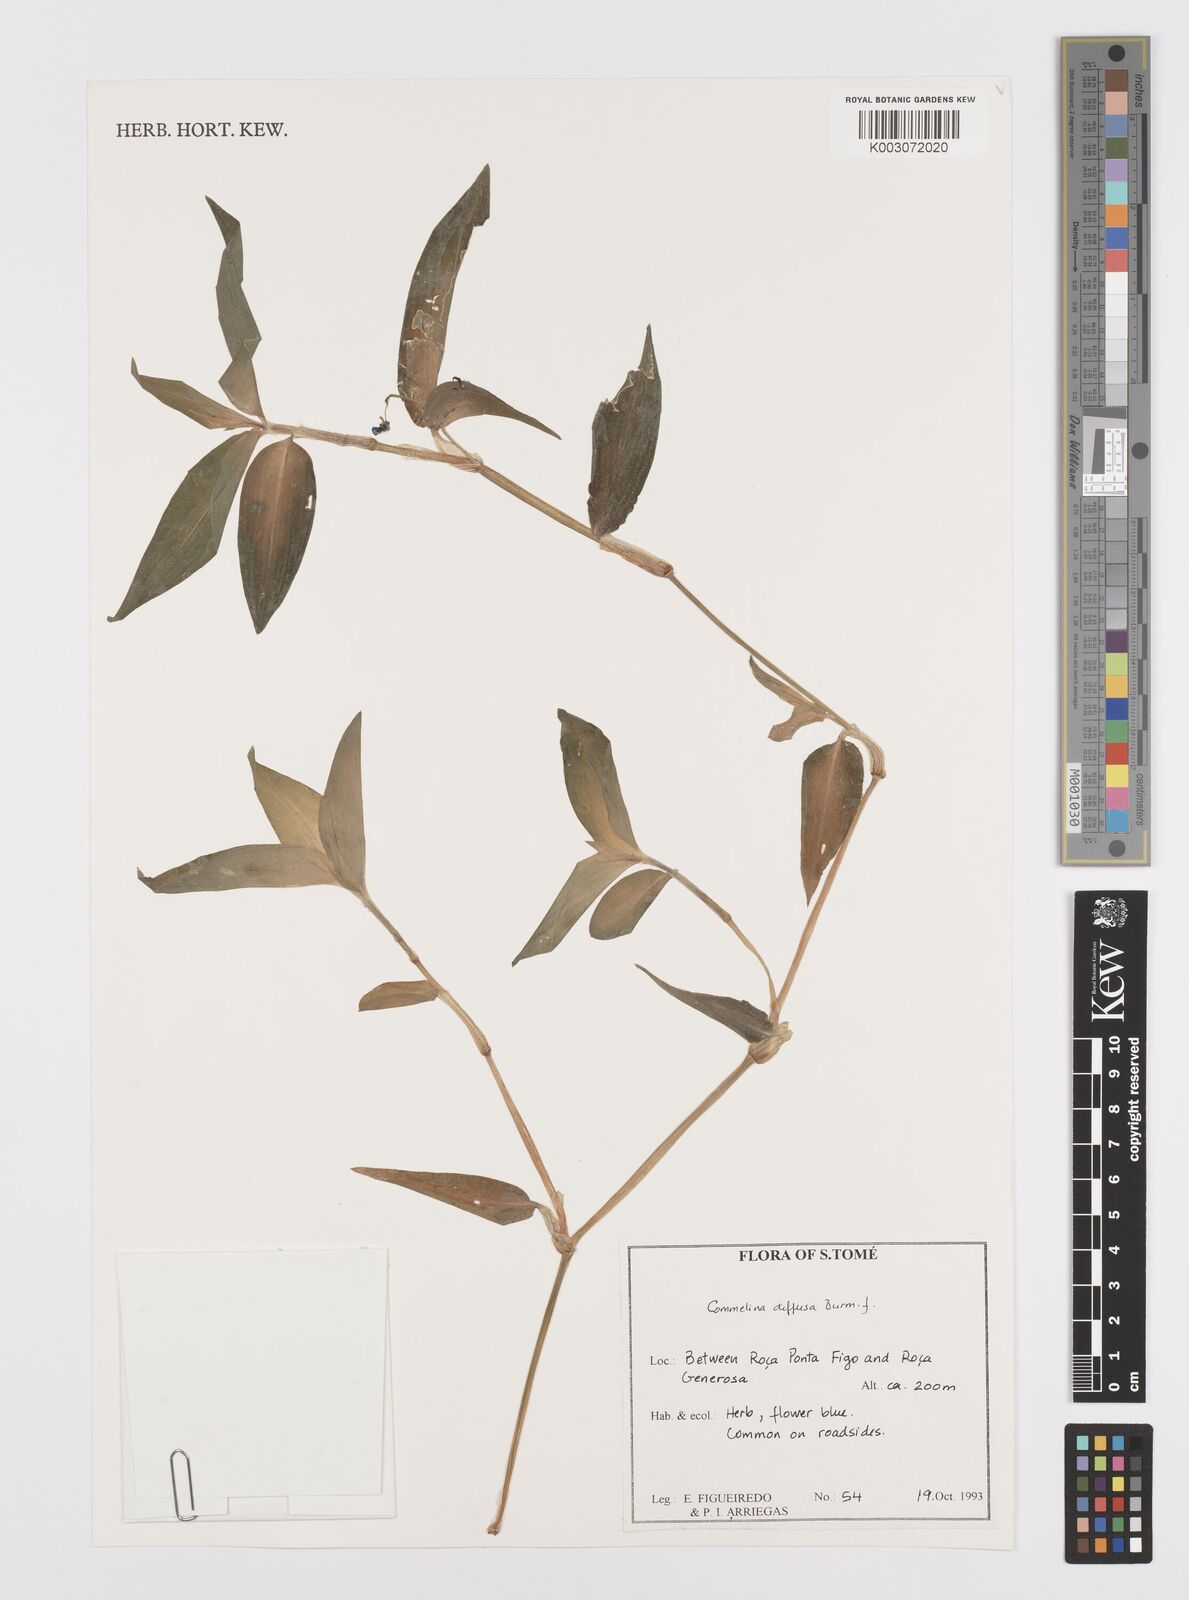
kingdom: Plantae
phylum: Tracheophyta
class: Liliopsida
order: Commelinales
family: Commelinaceae
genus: Commelina
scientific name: Commelina diffusa
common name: Climbing dayflower
